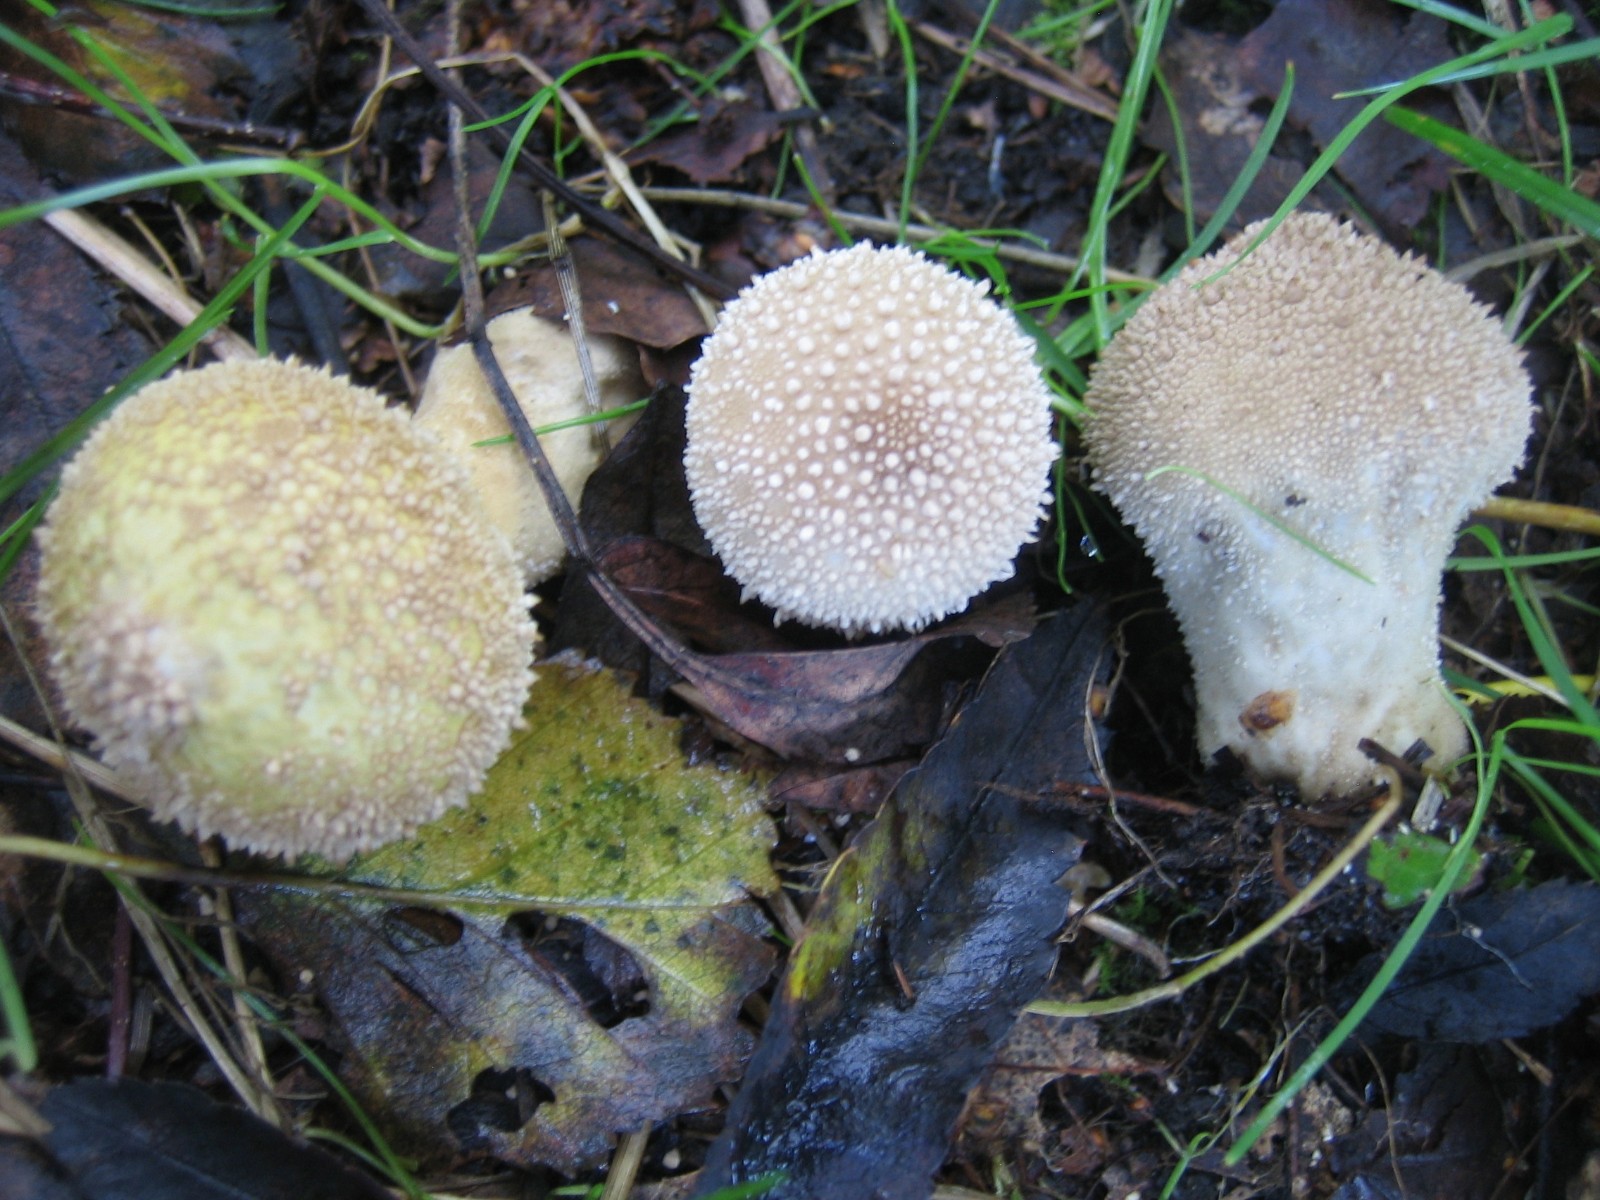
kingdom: Fungi
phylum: Basidiomycota
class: Agaricomycetes
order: Agaricales
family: Lycoperdaceae
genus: Lycoperdon
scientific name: Lycoperdon perlatum
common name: krystal-støvbold
